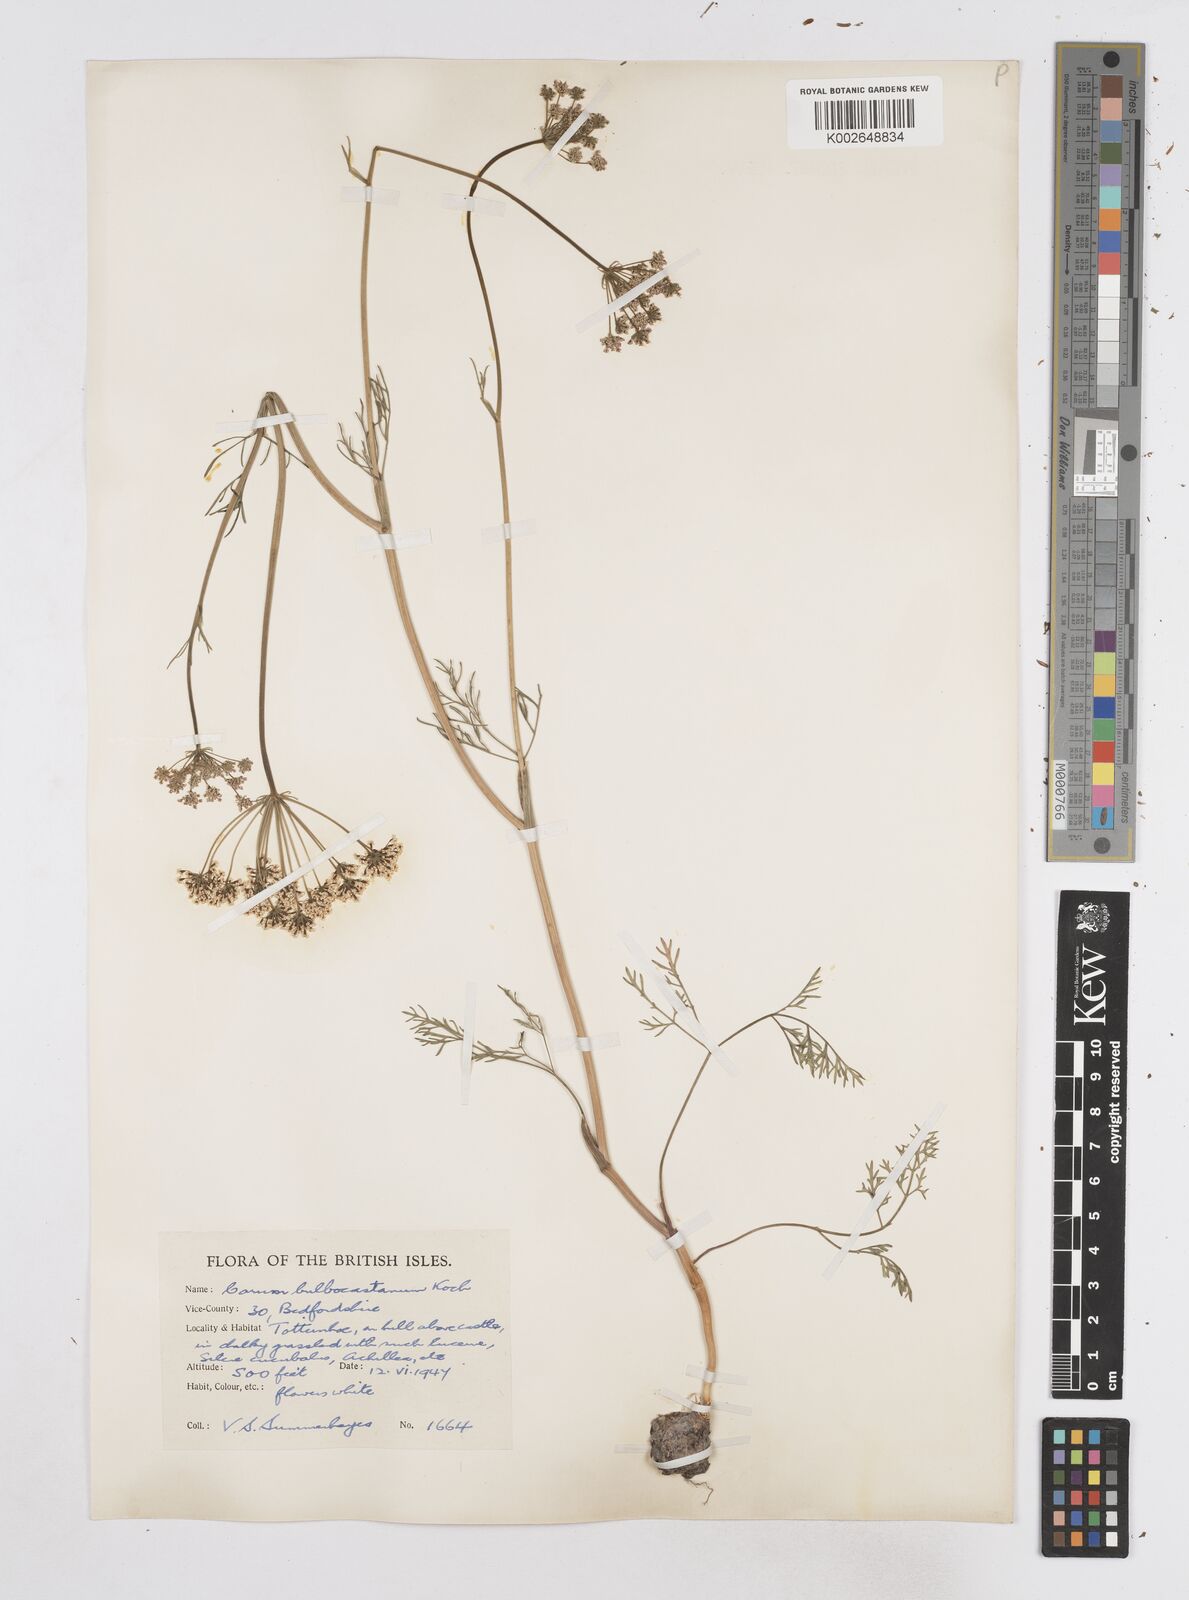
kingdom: Plantae
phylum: Tracheophyta
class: Magnoliopsida
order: Apiales
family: Apiaceae
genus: Bunium
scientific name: Bunium bulbocastanum
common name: Great pignut
